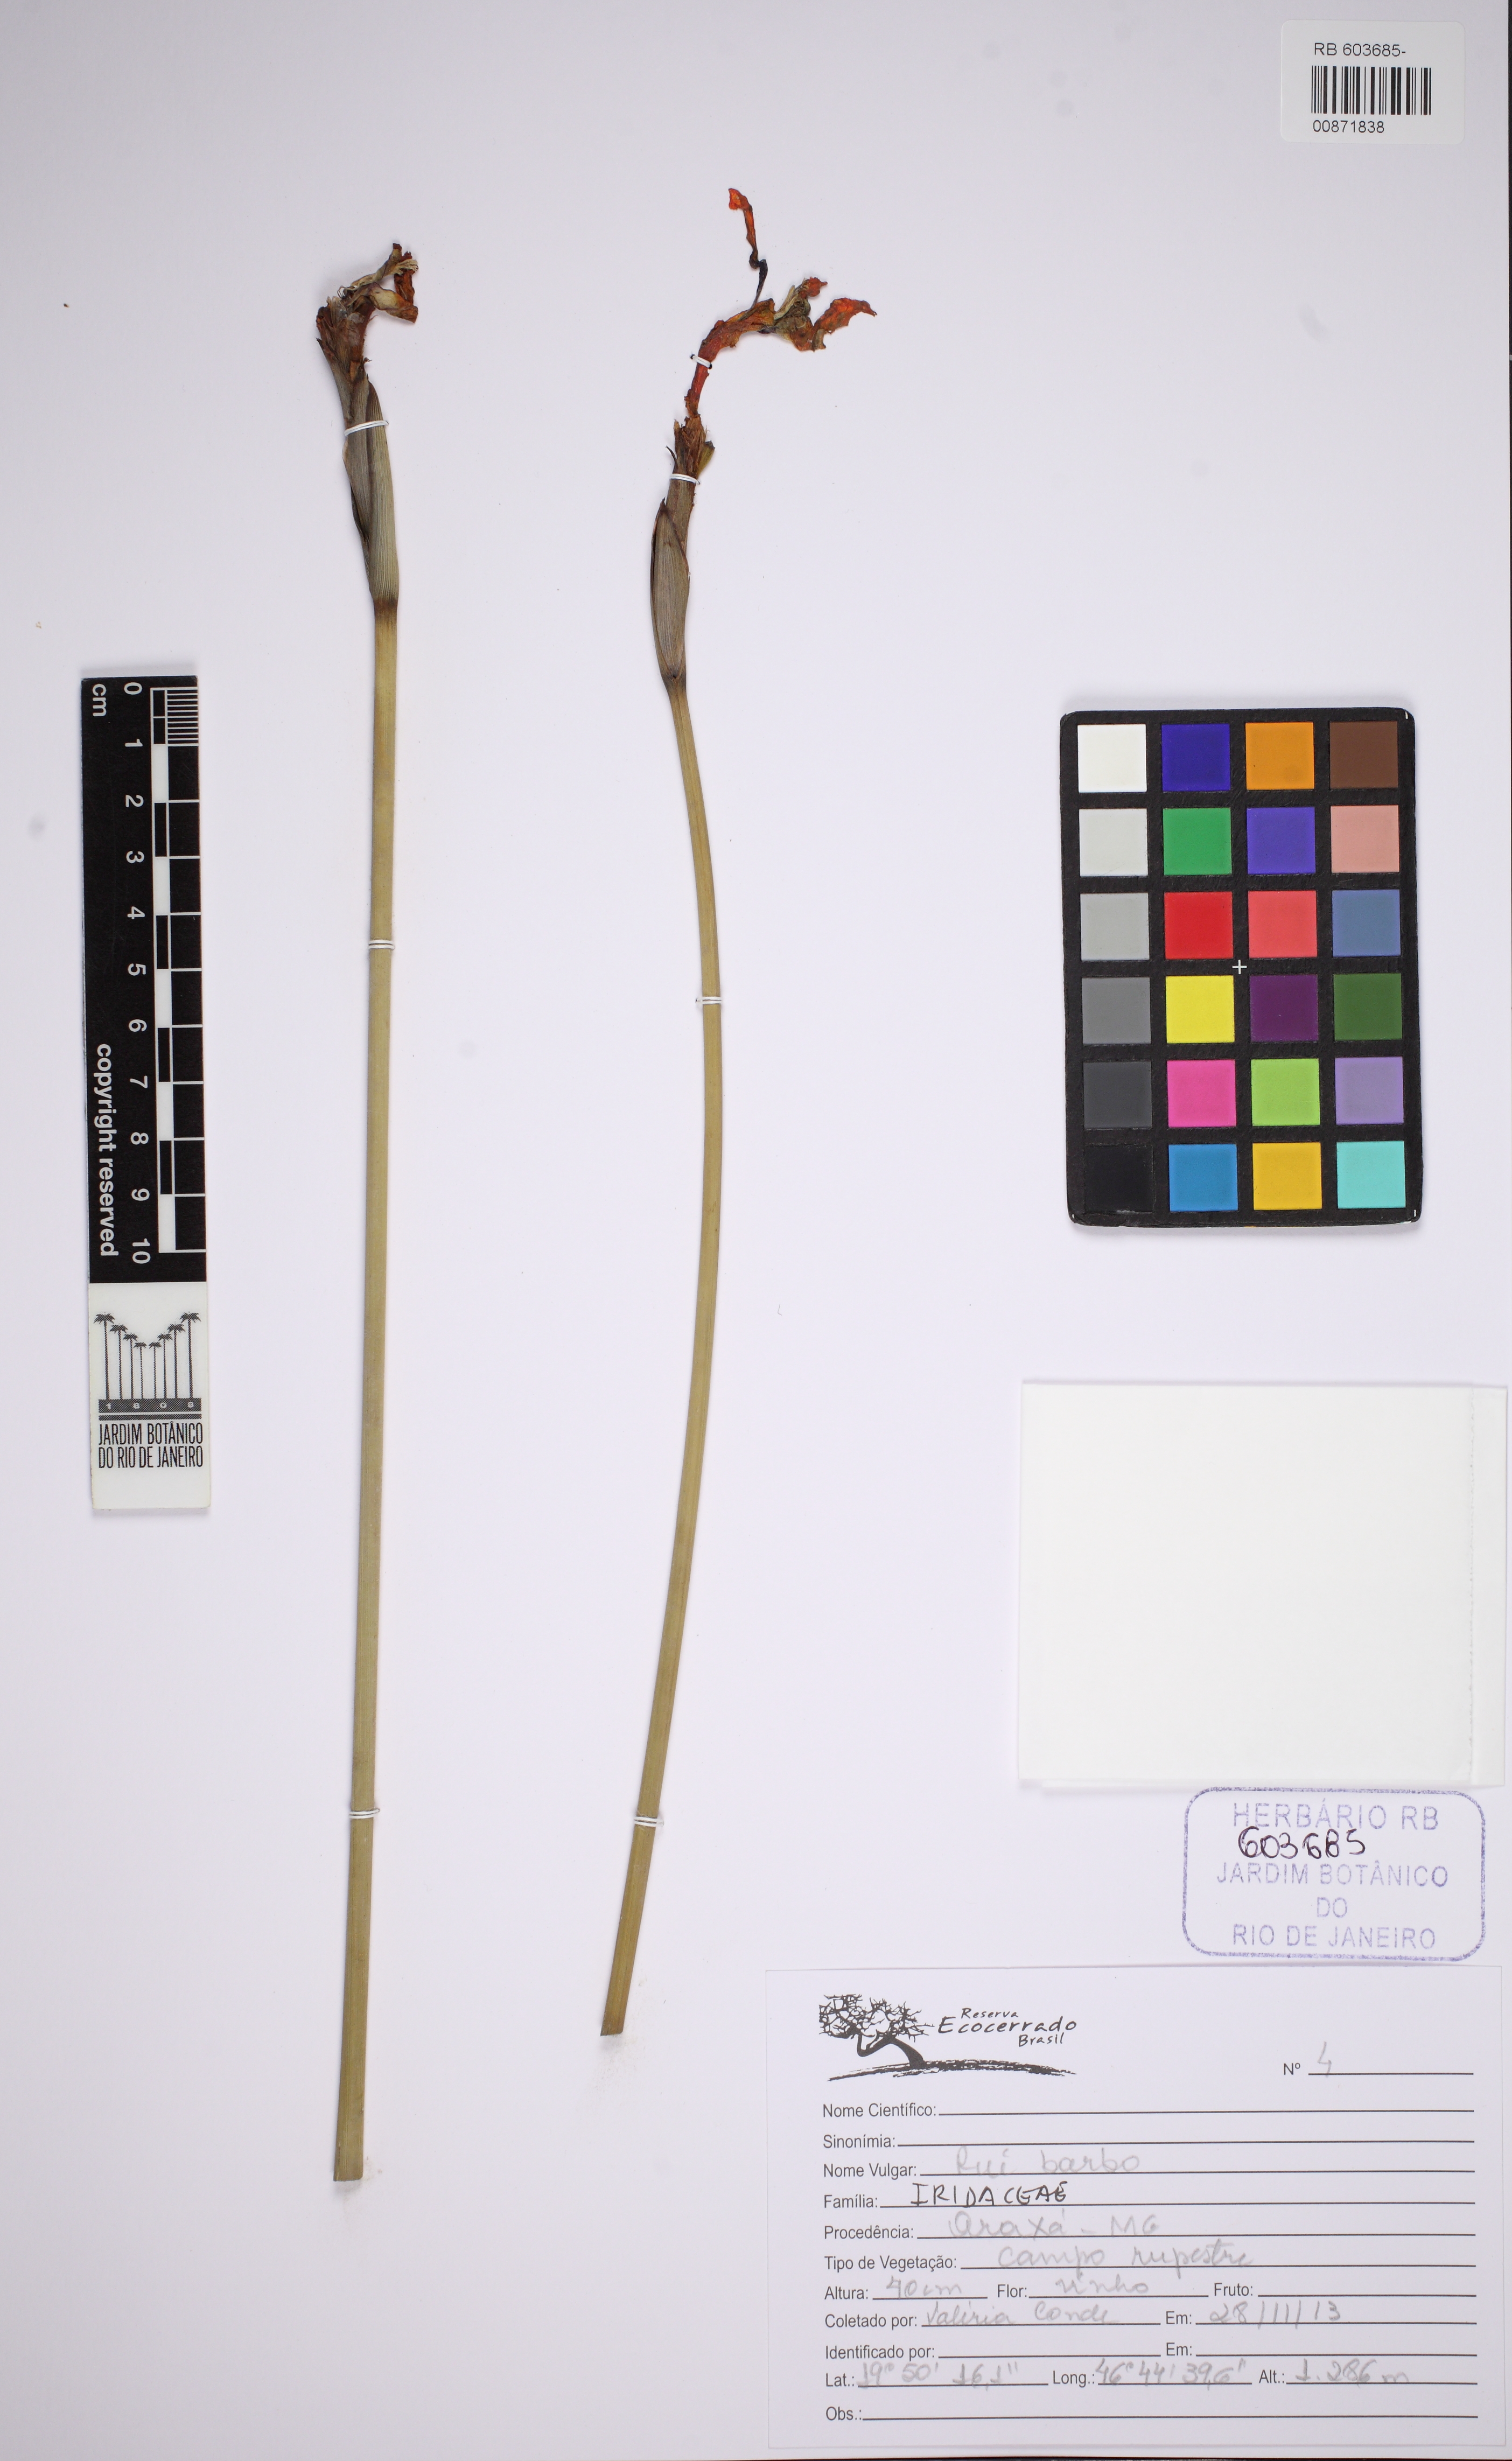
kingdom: Plantae
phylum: Tracheophyta
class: Liliopsida
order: Asparagales
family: Iridaceae
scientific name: Iridaceae
